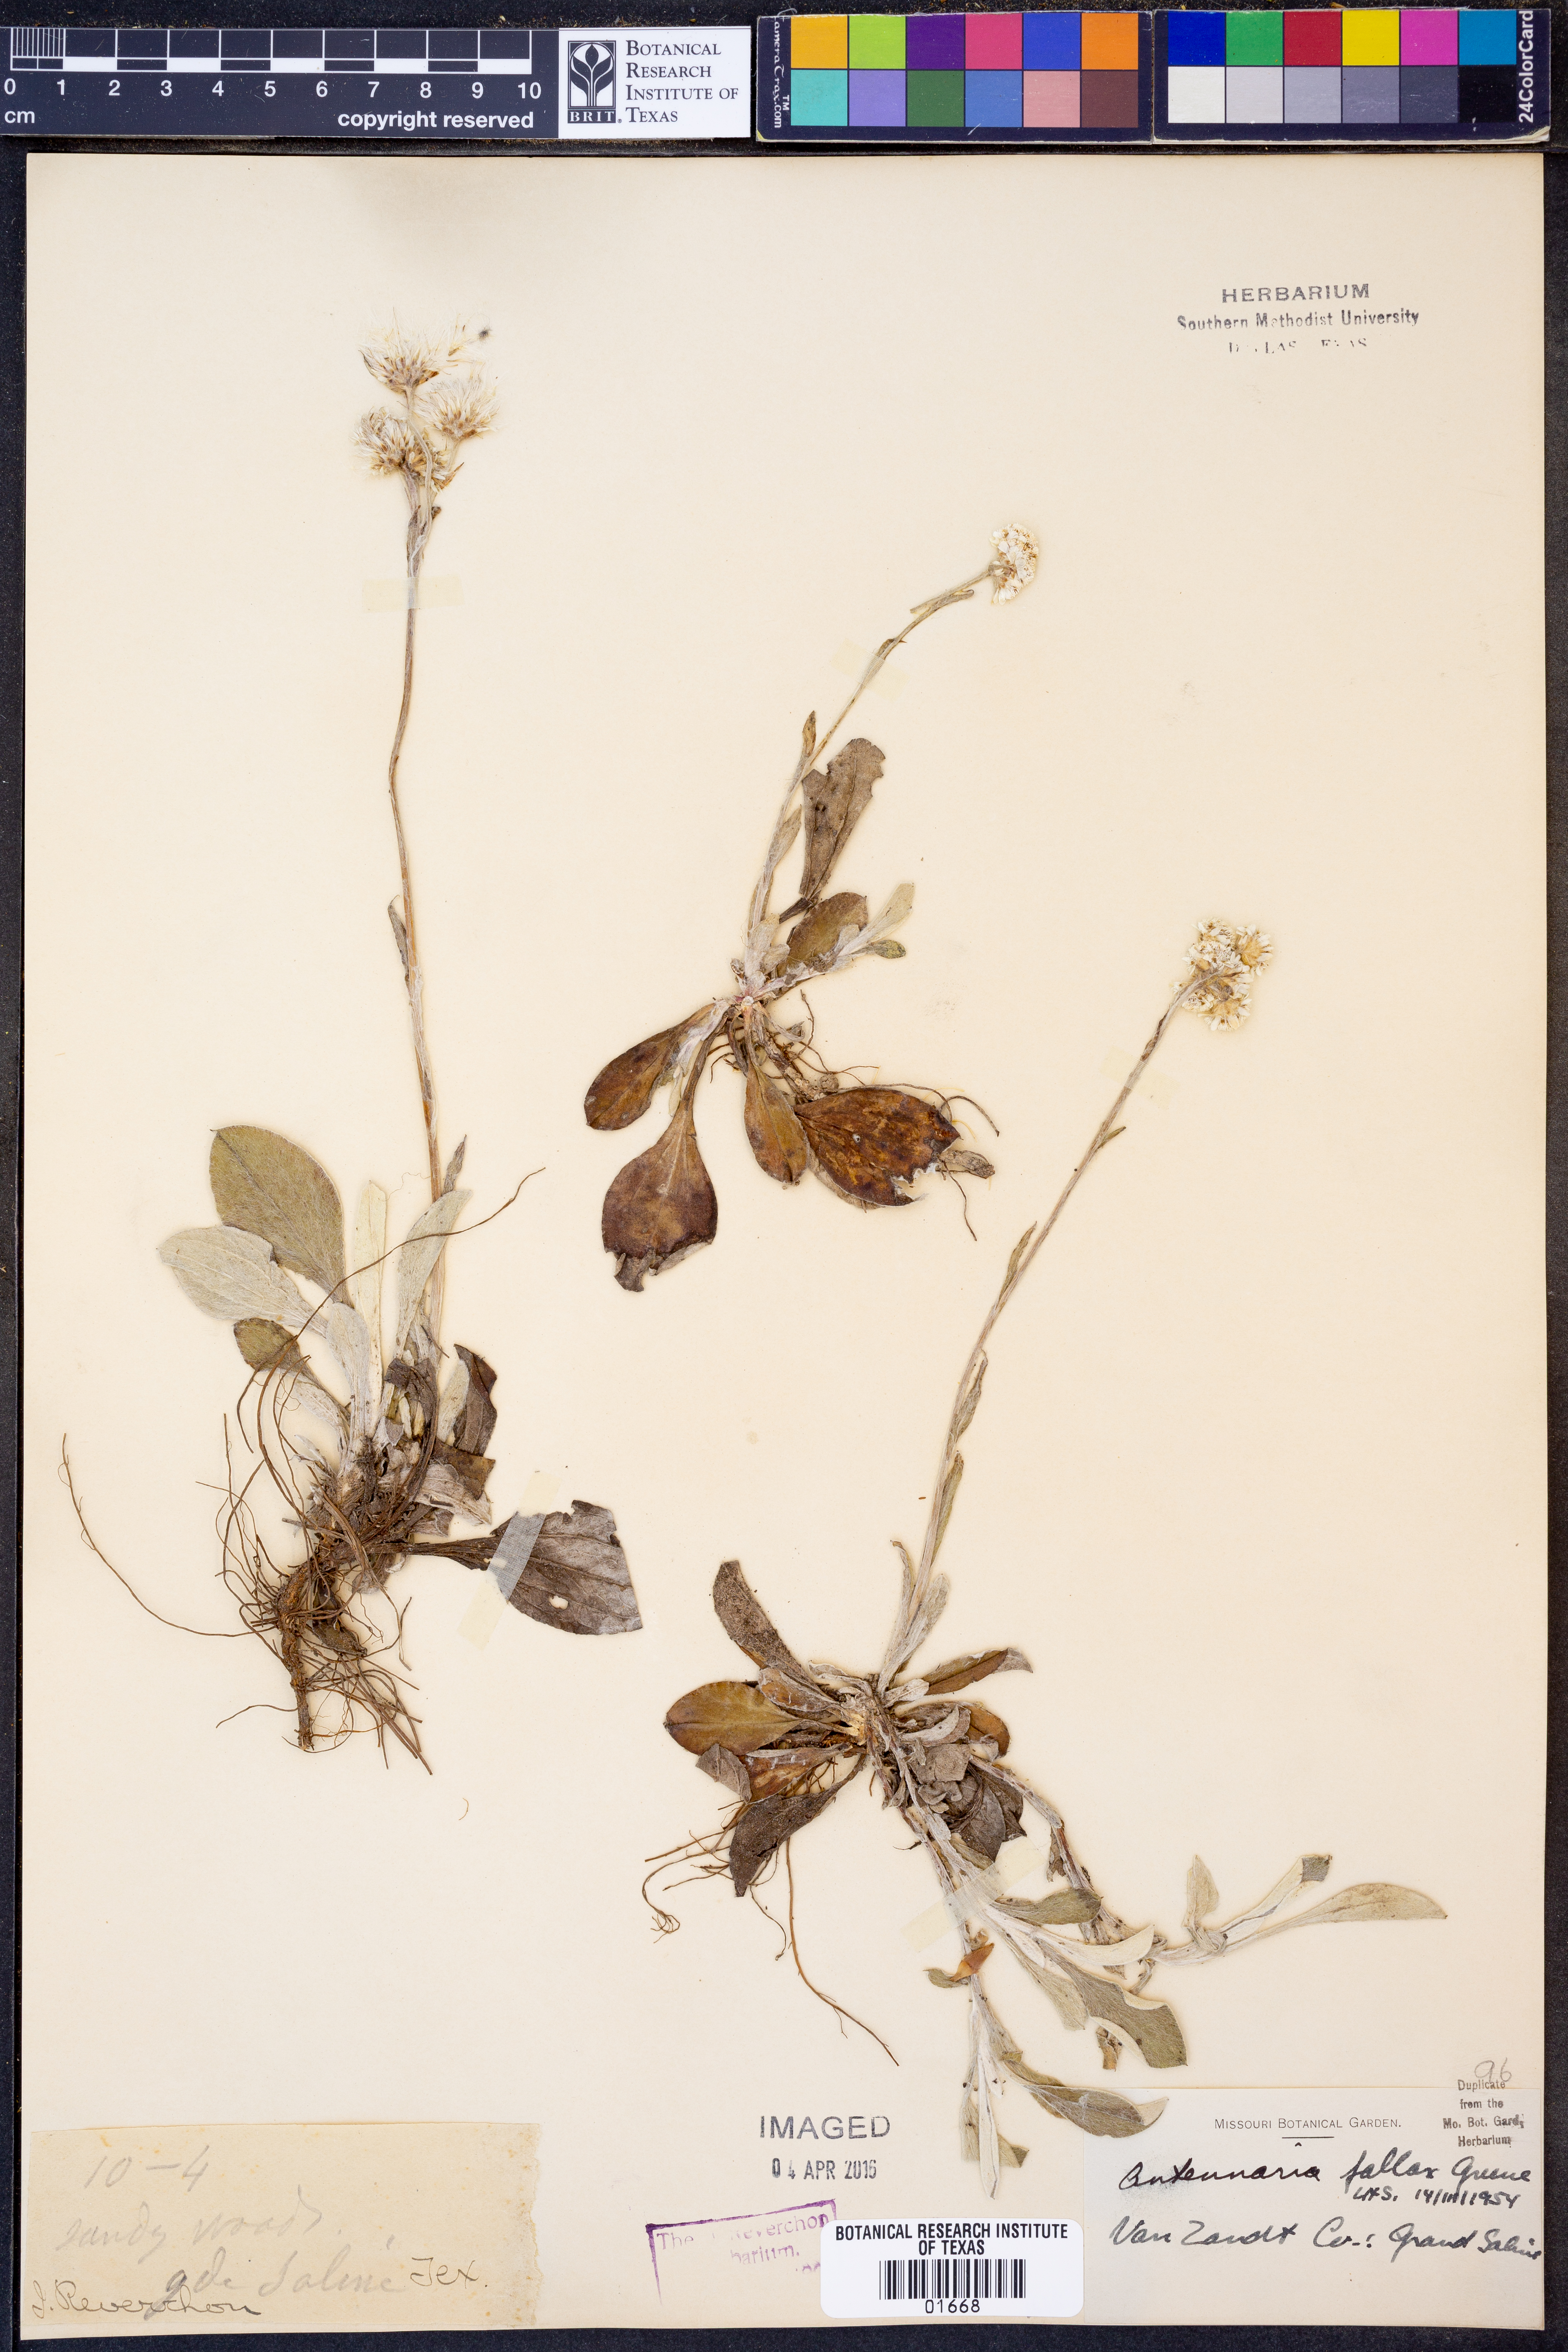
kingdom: Plantae
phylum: Tracheophyta
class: Magnoliopsida
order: Asterales
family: Asteraceae
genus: Antennaria
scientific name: Antennaria parlinii
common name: Parlin's pussytoes
